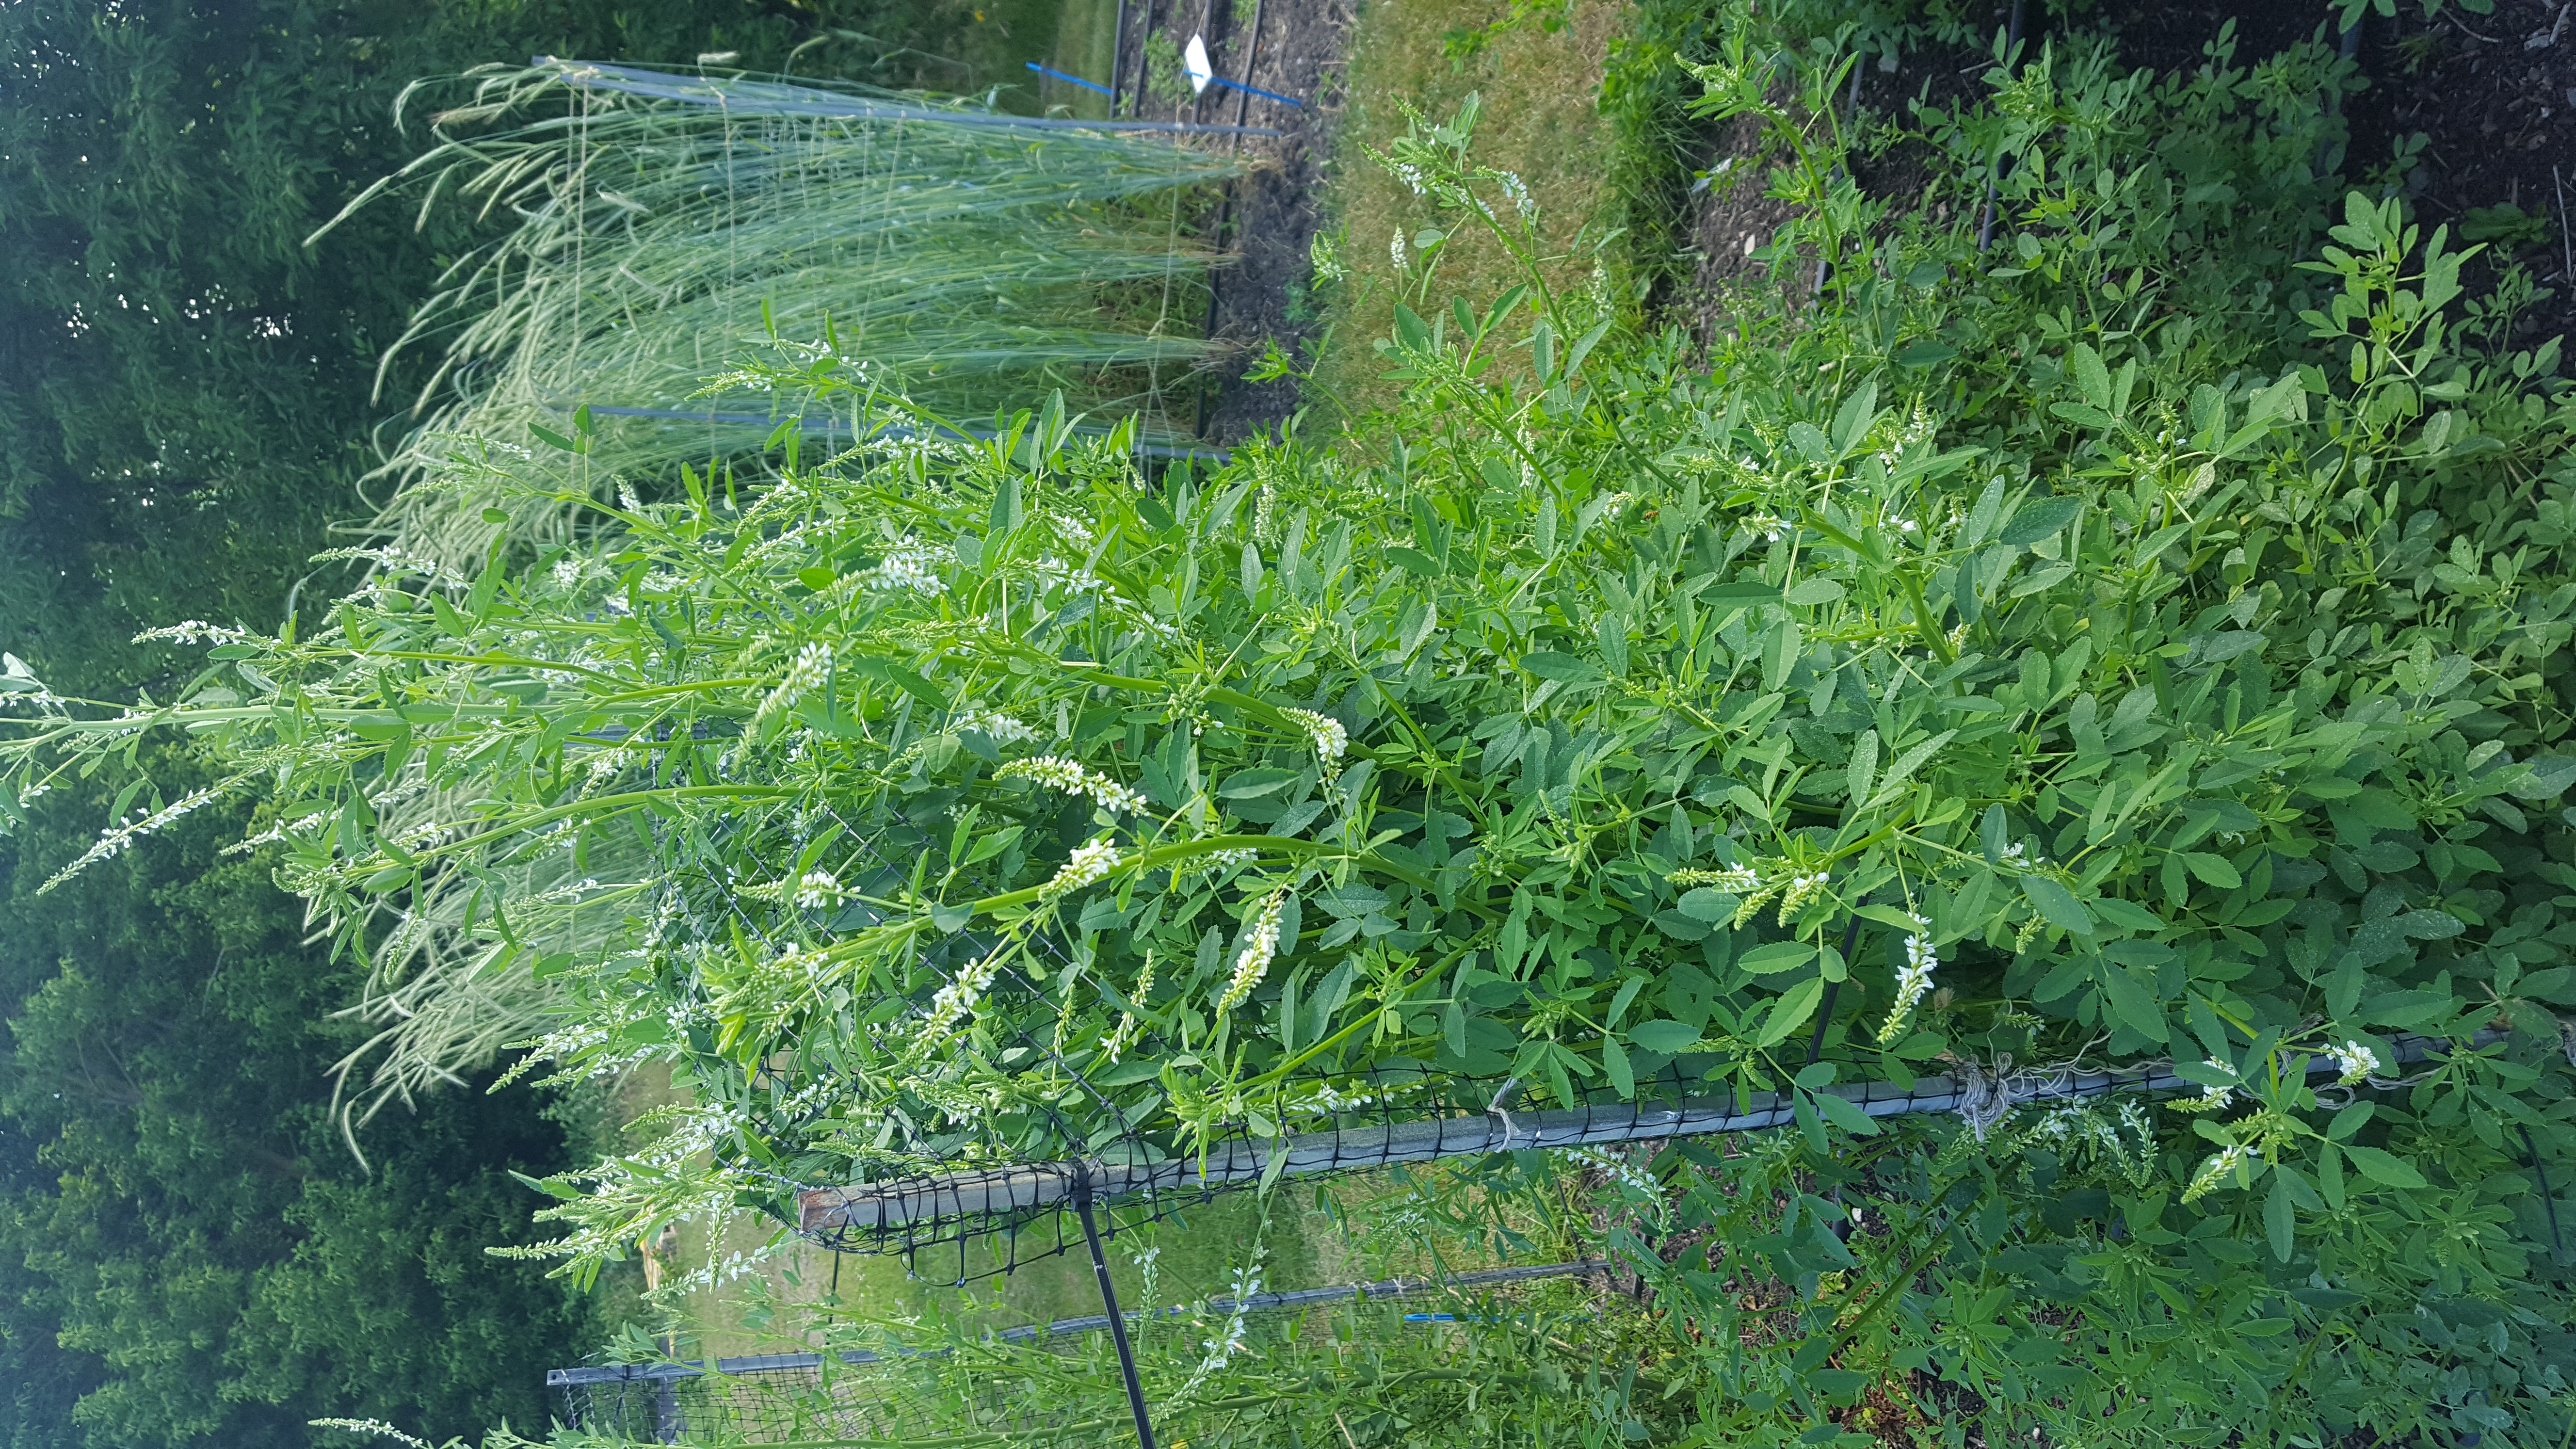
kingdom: Plantae
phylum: Tracheophyta
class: Magnoliopsida
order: Fabales
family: Fabaceae
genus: Melilotus
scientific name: Melilotus albus
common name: White melilot
